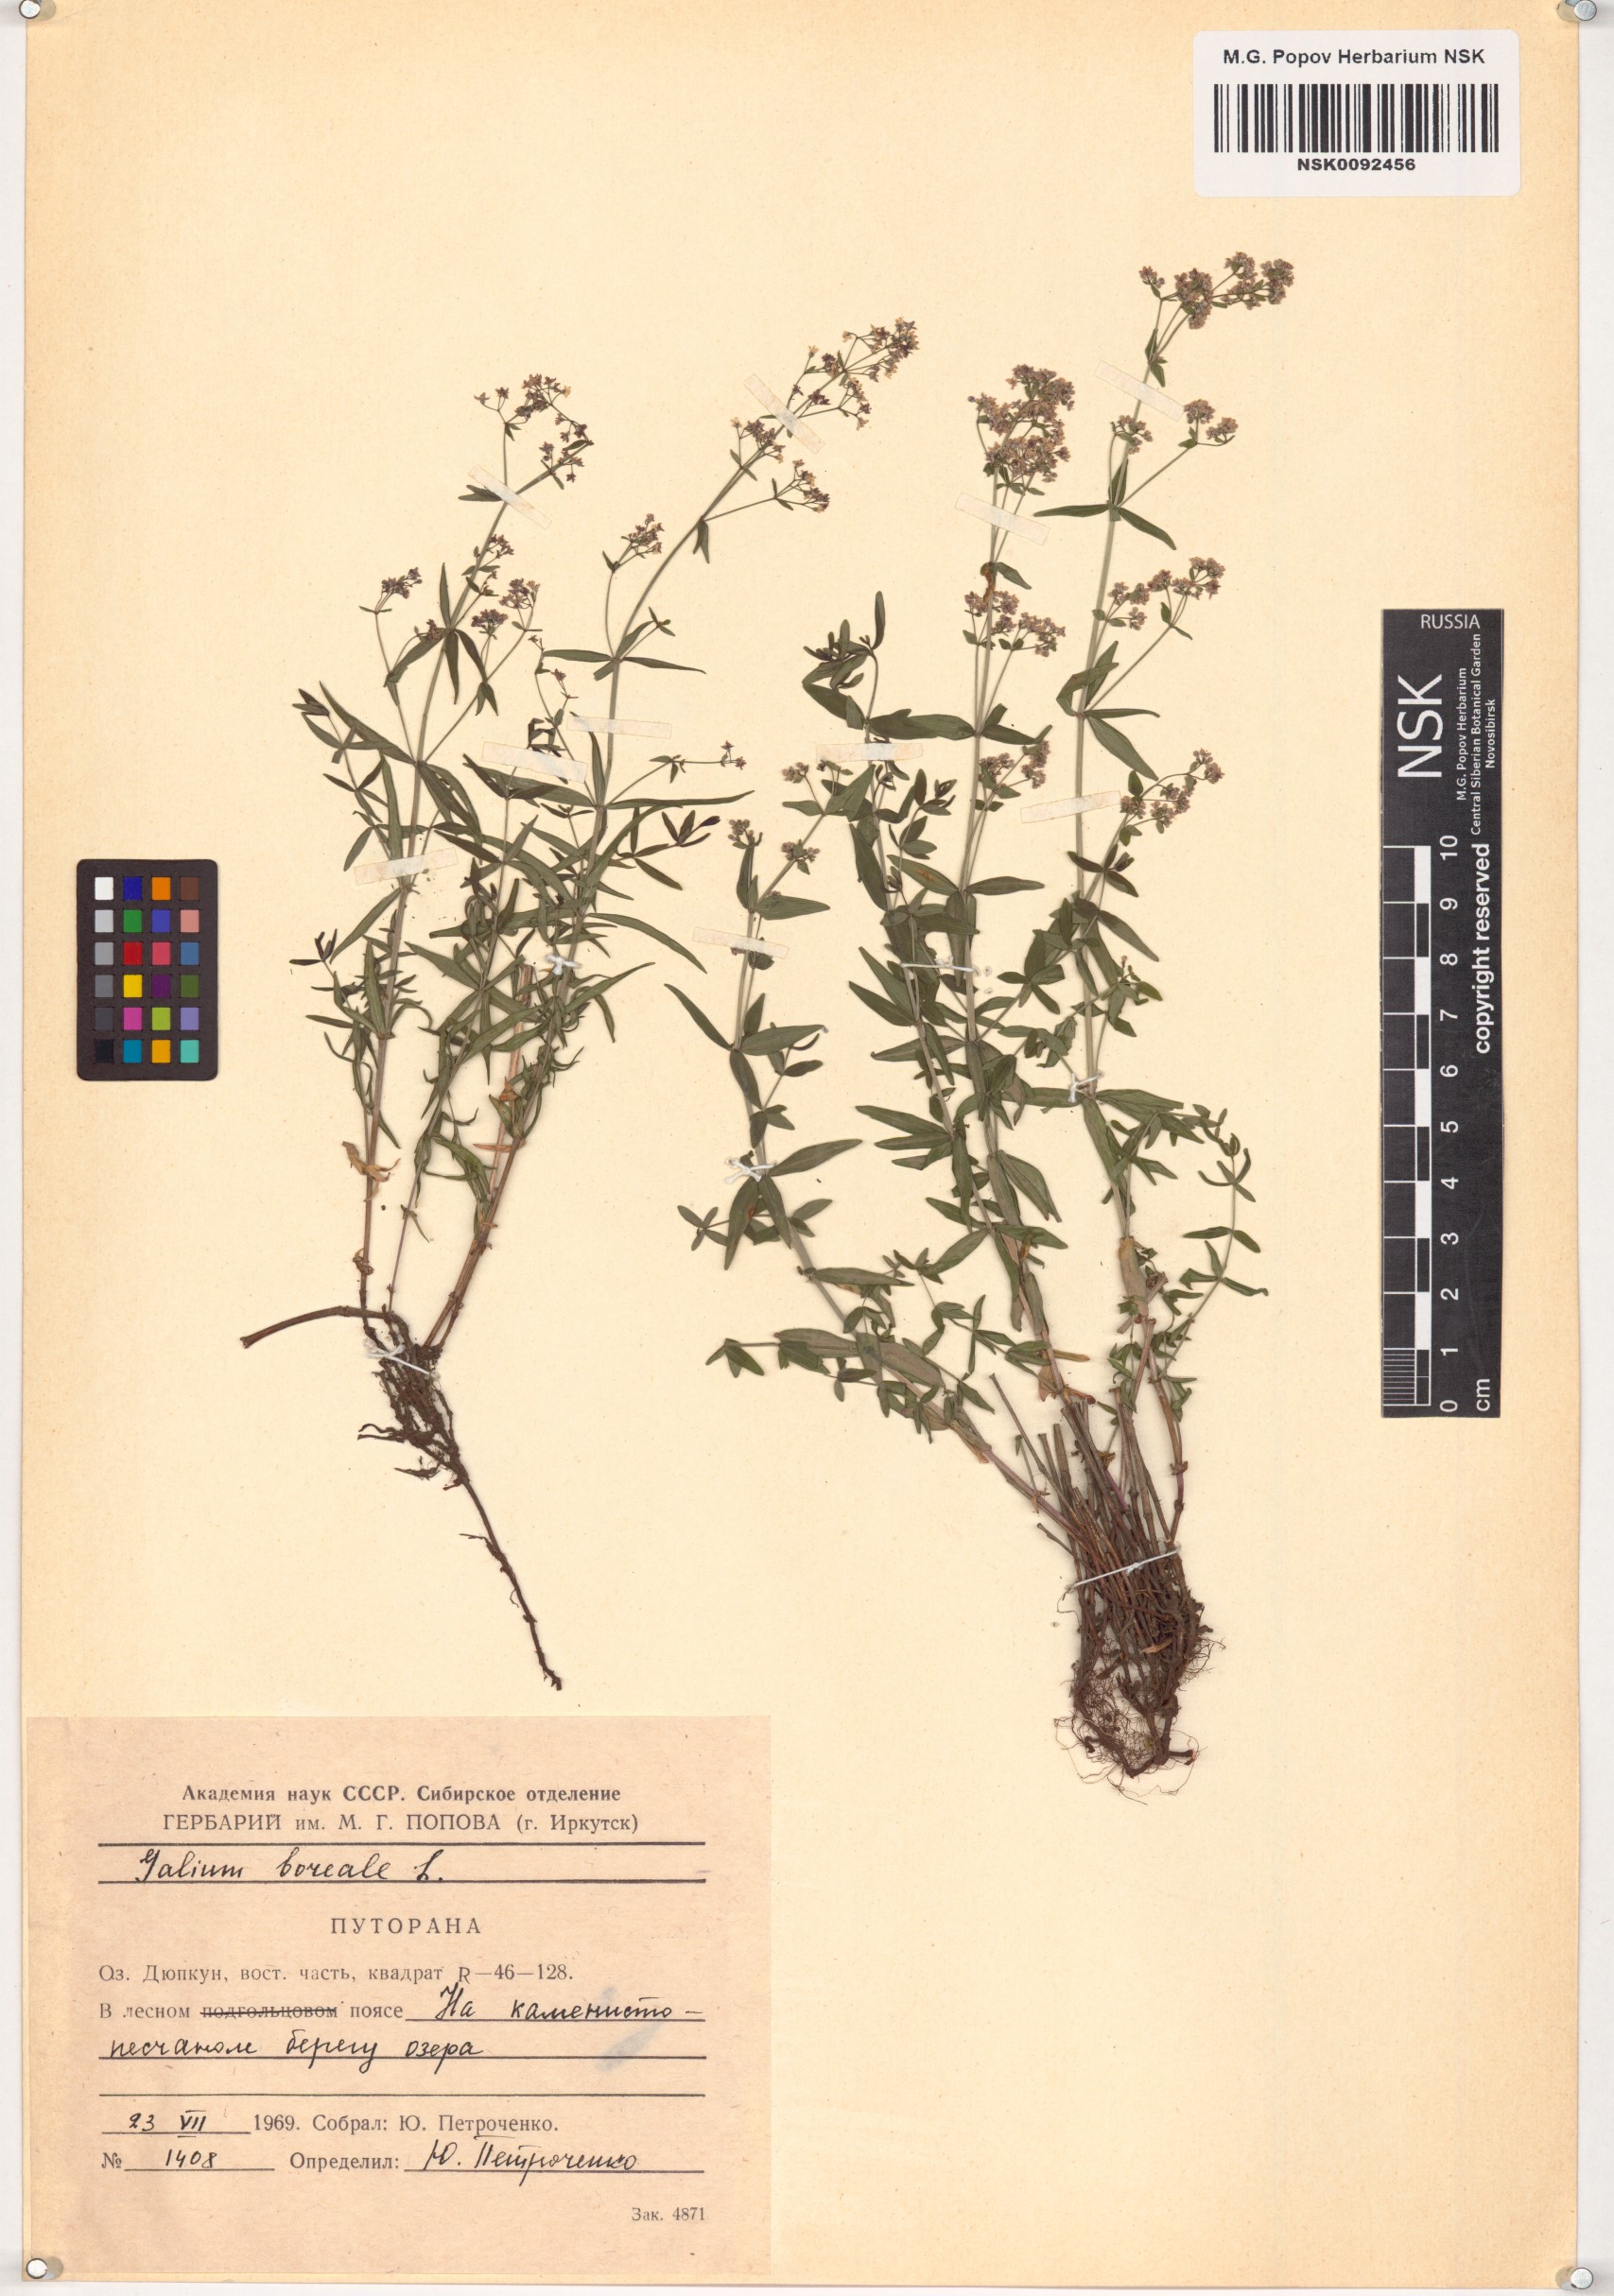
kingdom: Plantae
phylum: Tracheophyta
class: Magnoliopsida
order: Gentianales
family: Rubiaceae
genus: Galium
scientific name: Galium boreale
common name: Northern bedstraw
